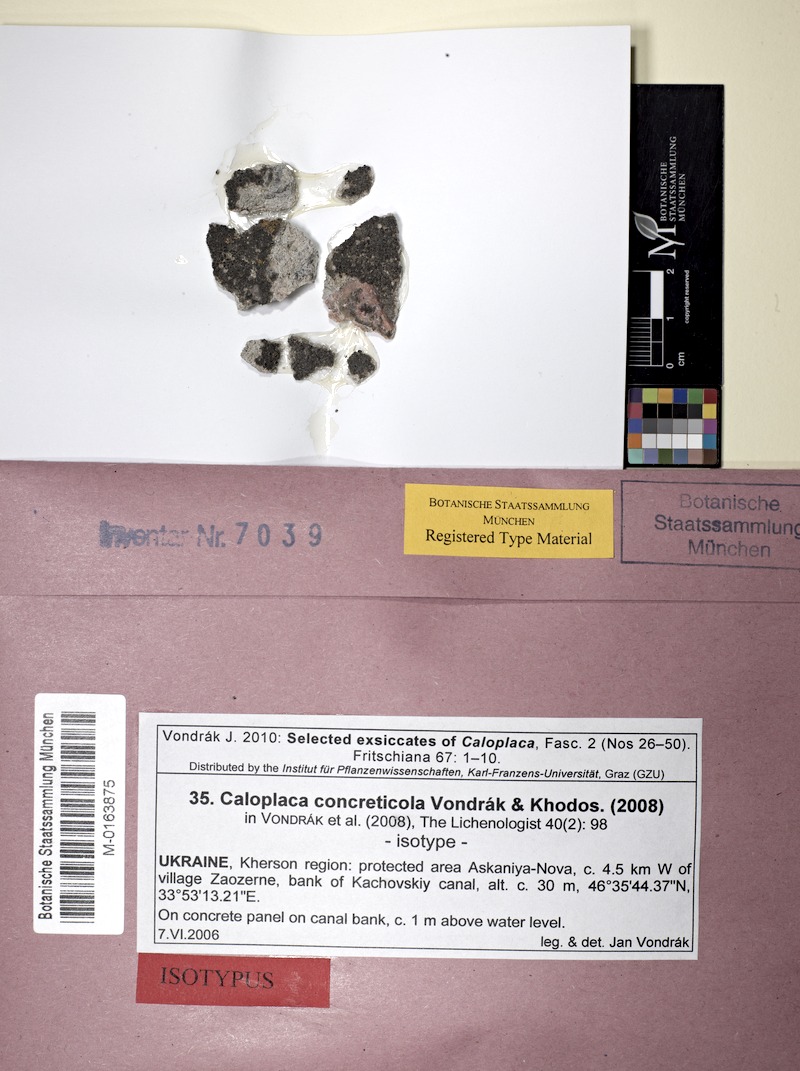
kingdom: Fungi
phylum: Ascomycota
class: Lecanoromycetes
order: Teloschistales
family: Teloschistaceae
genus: Pyrenodesmia
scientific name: Pyrenodesmia concreticola
